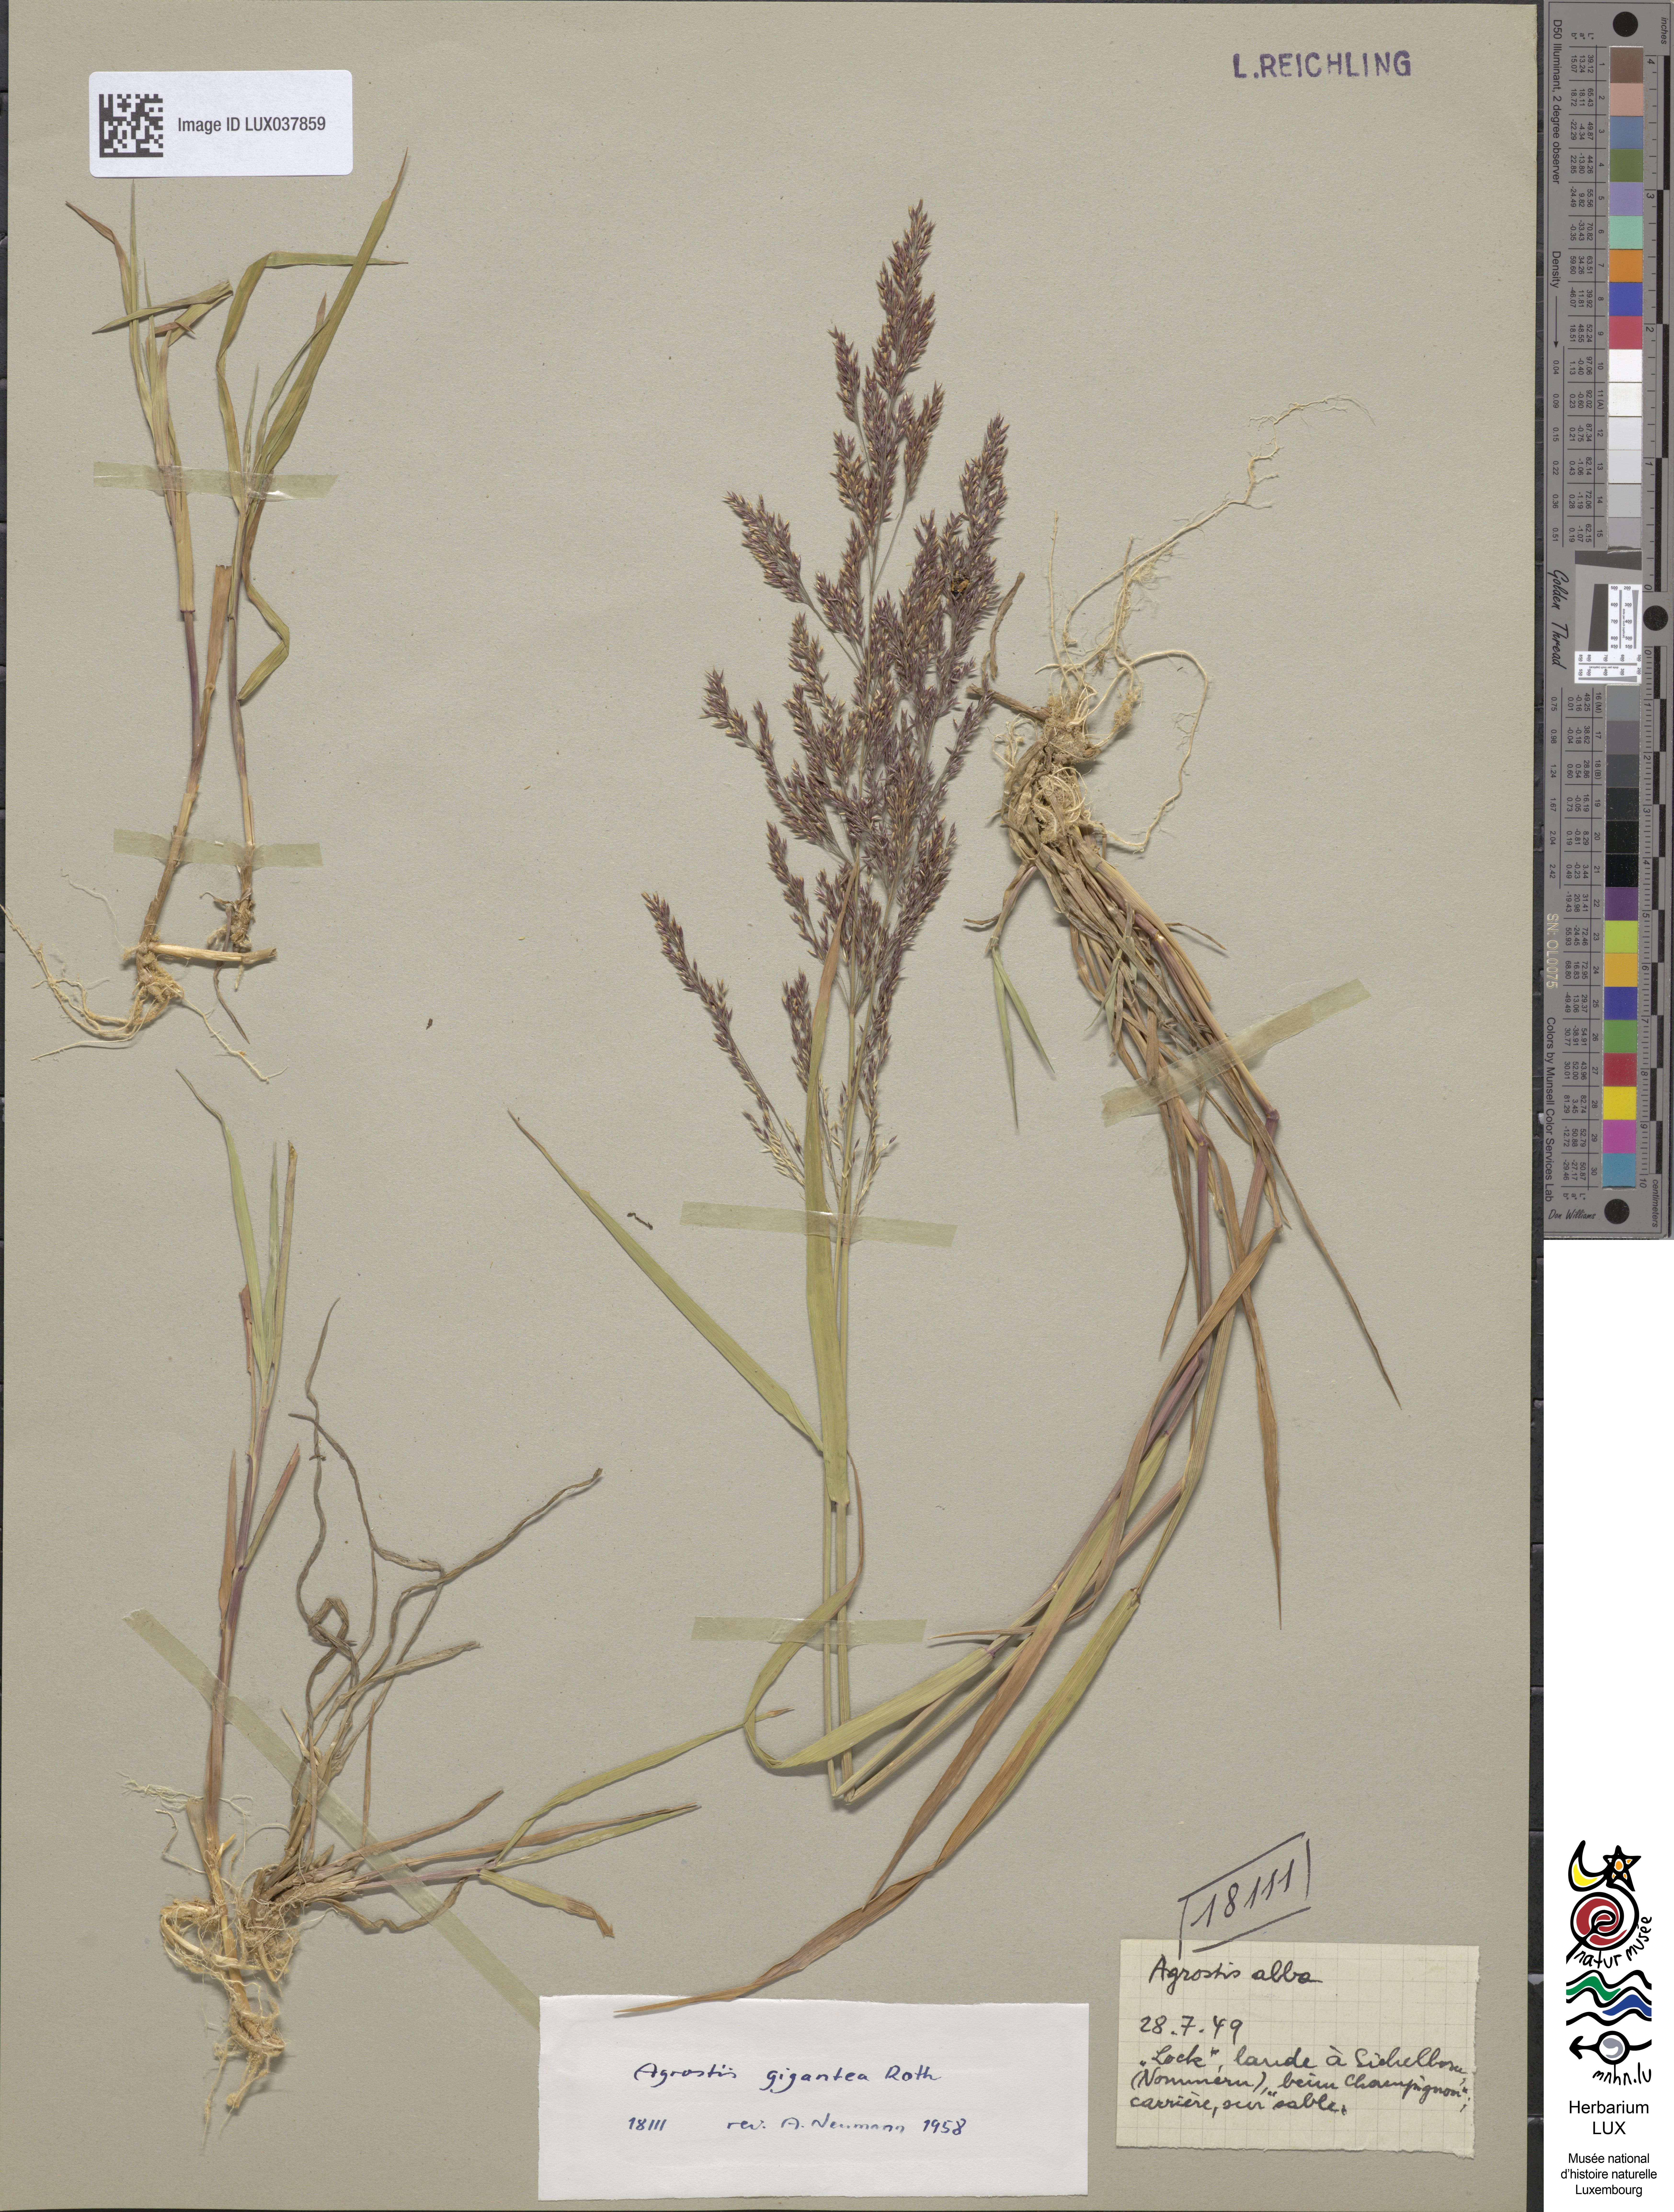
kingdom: Plantae
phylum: Tracheophyta
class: Liliopsida
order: Poales
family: Poaceae
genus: Agrostis
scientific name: Agrostis gigantea
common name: Black bent
